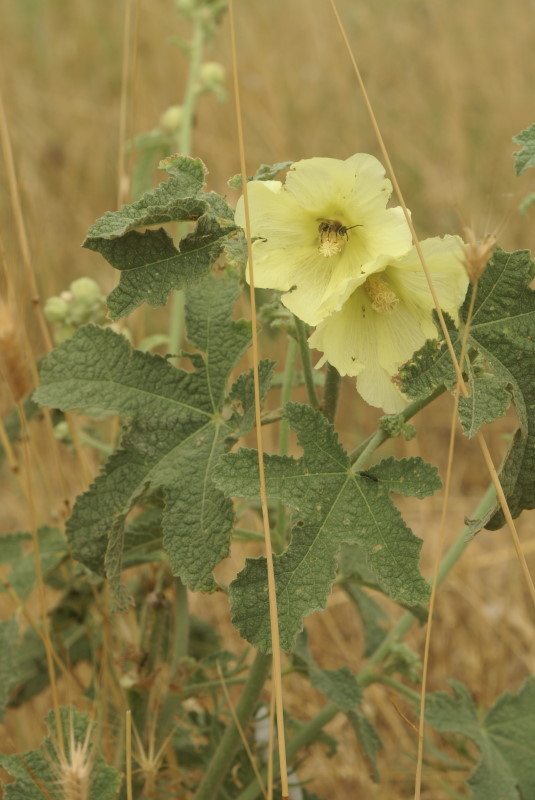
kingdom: Plantae
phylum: Tracheophyta
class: Magnoliopsida
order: Malvales
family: Malvaceae
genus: Alcea
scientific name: Alcea rugosa
